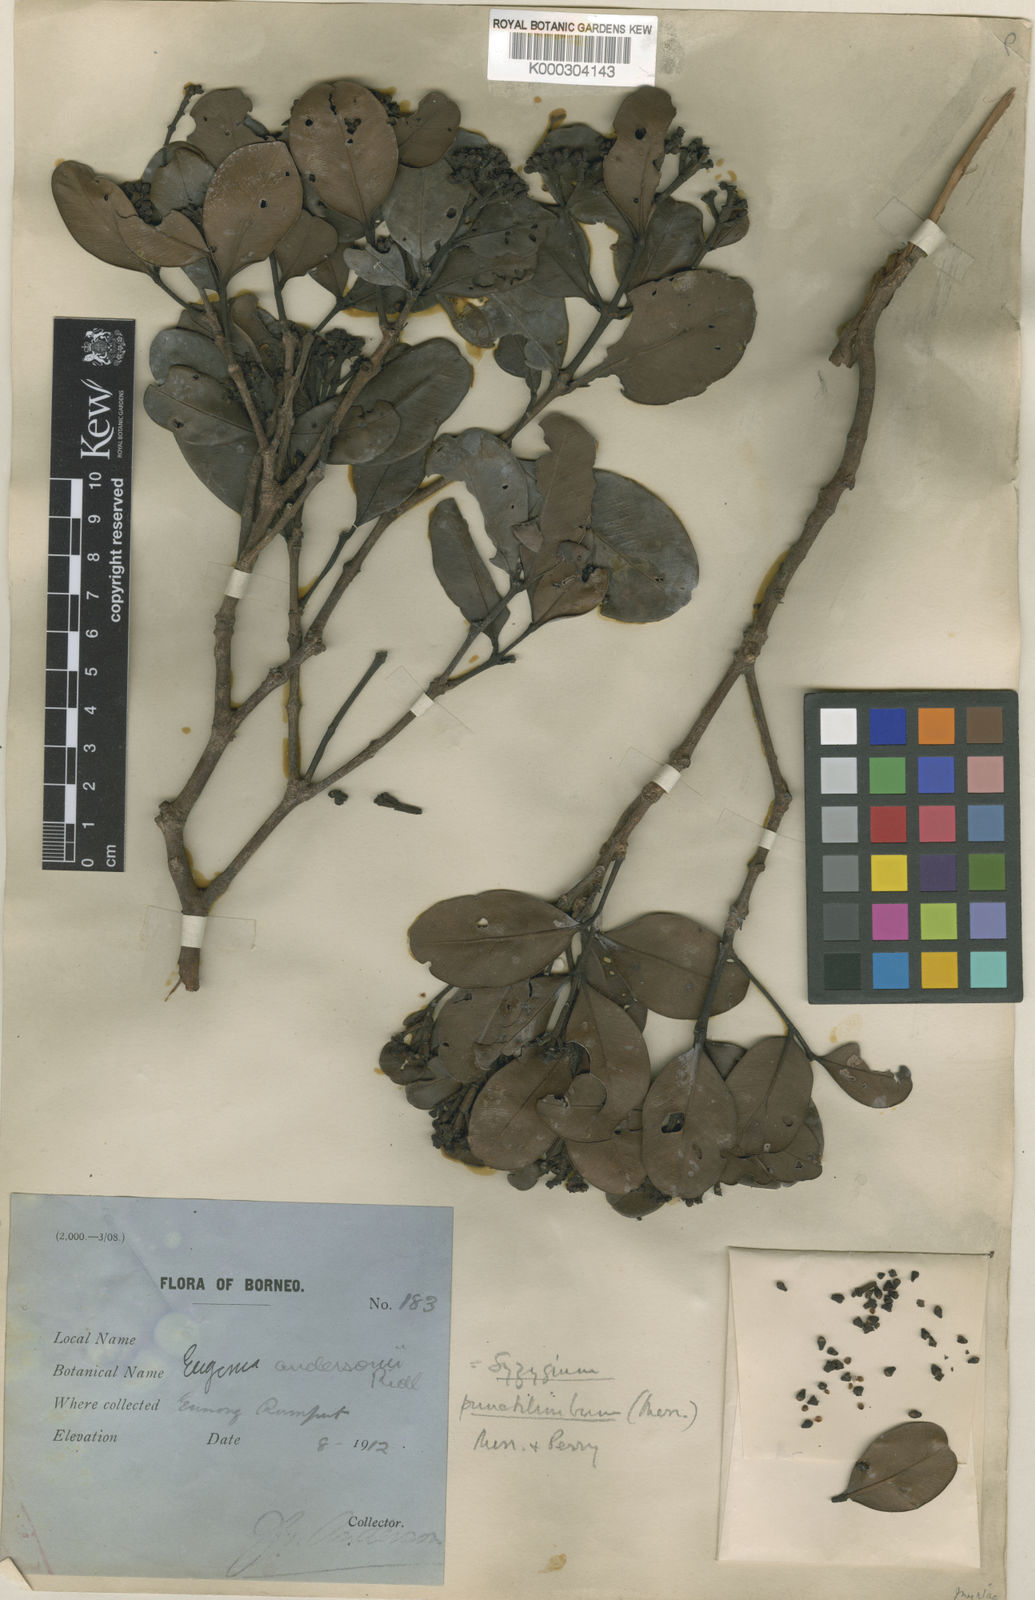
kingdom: Plantae
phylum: Tracheophyta
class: Magnoliopsida
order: Myrtales
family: Myrtaceae
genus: Syzygium
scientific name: Syzygium punctilimbum
